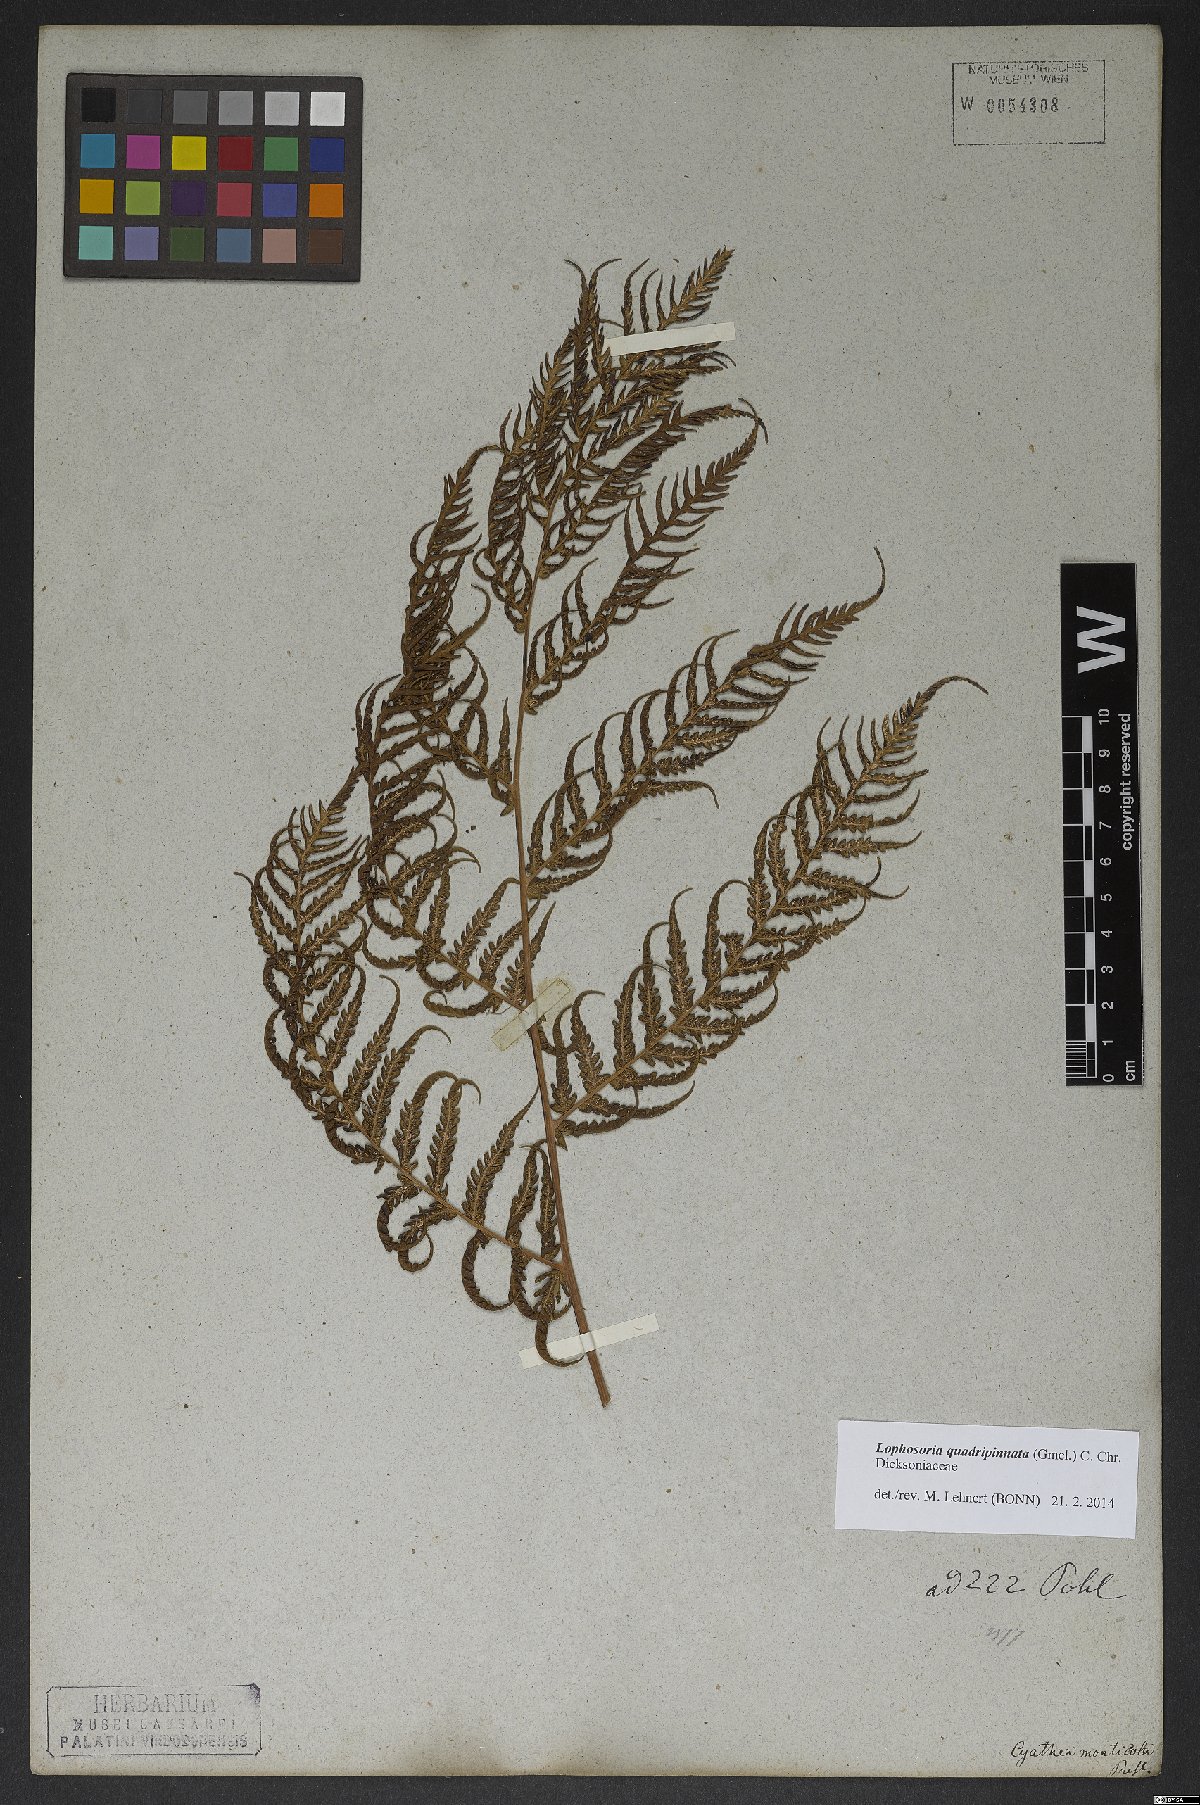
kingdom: Plantae
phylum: Tracheophyta
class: Polypodiopsida
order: Cyatheales
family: Dicksoniaceae
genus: Lophosoria
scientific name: Lophosoria quadripinnata
